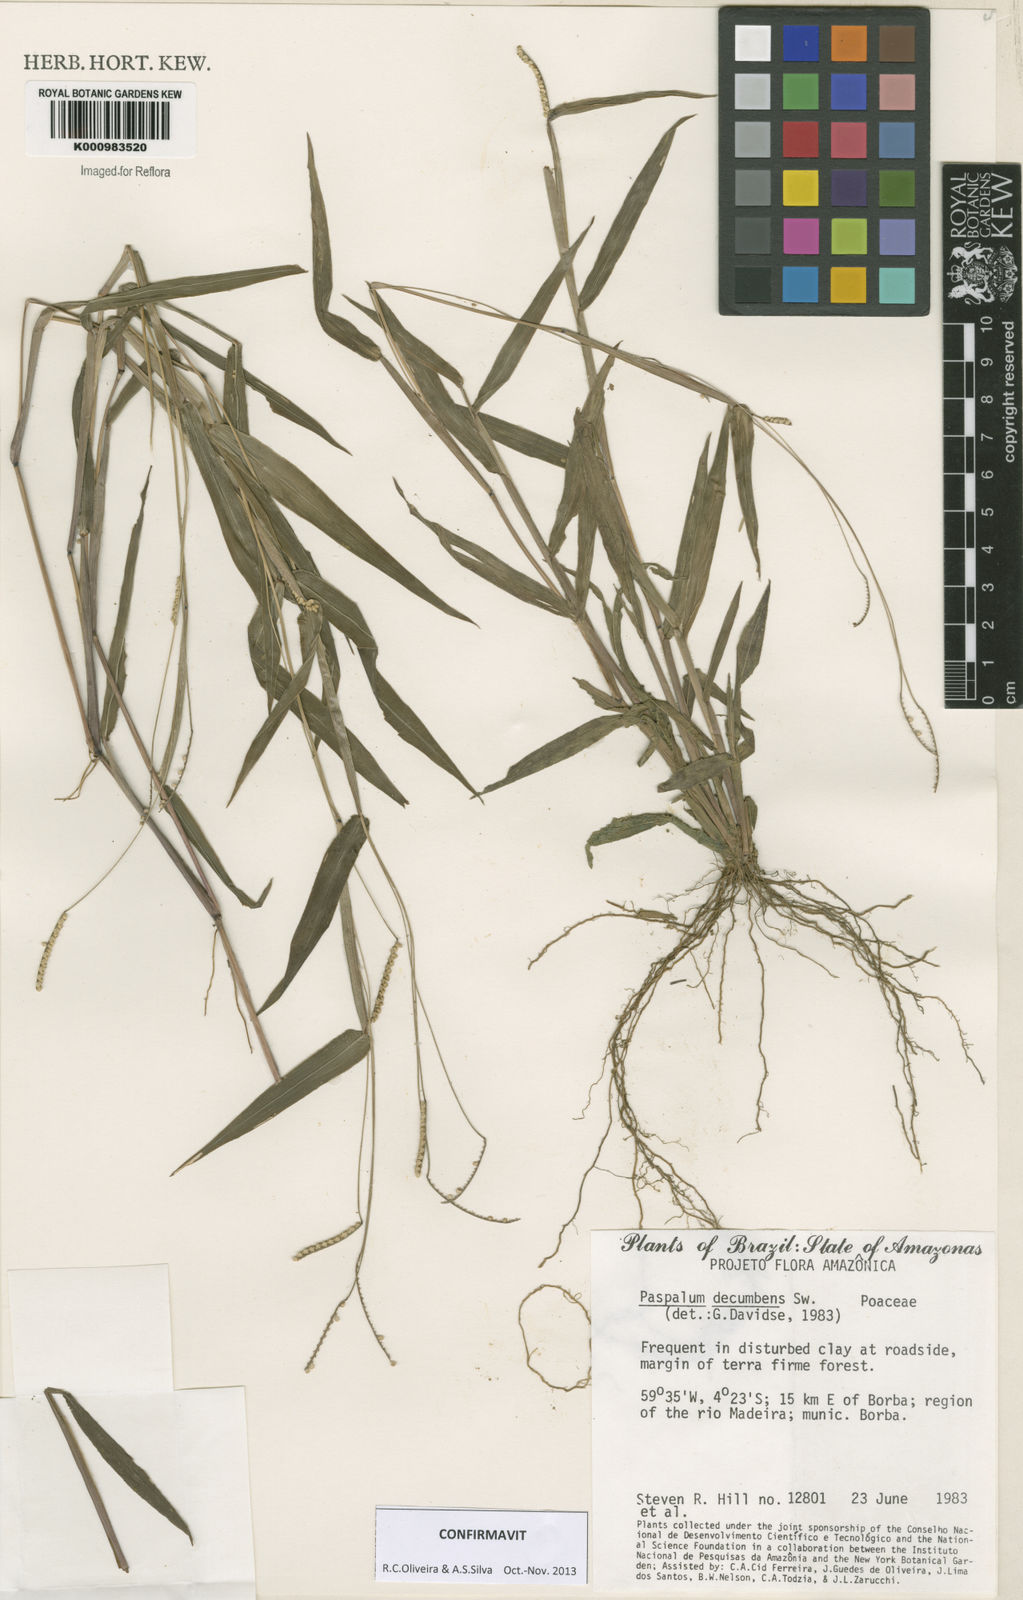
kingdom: Plantae
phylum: Tracheophyta
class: Liliopsida
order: Poales
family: Poaceae
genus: Paspalum
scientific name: Paspalum decumbens
